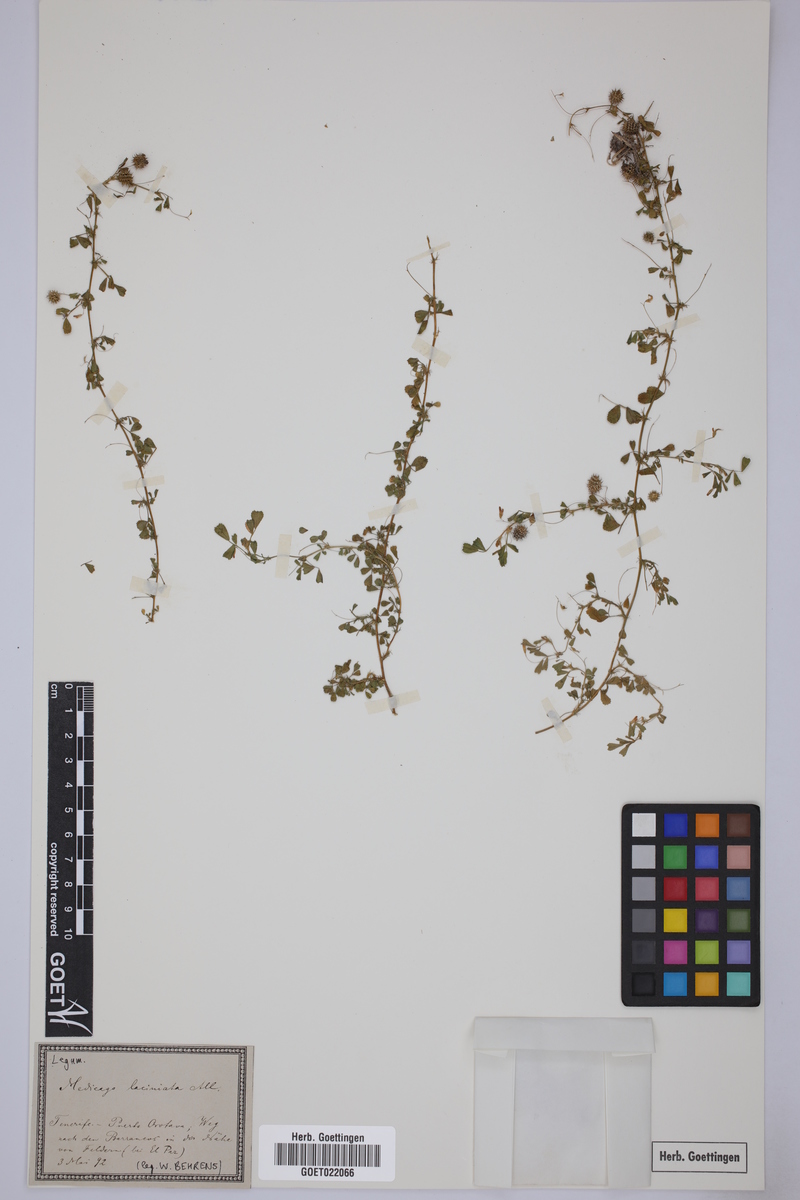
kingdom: Plantae
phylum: Tracheophyta
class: Magnoliopsida
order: Fabales
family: Fabaceae
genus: Medicago
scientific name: Medicago laciniata
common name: Tattered medick
